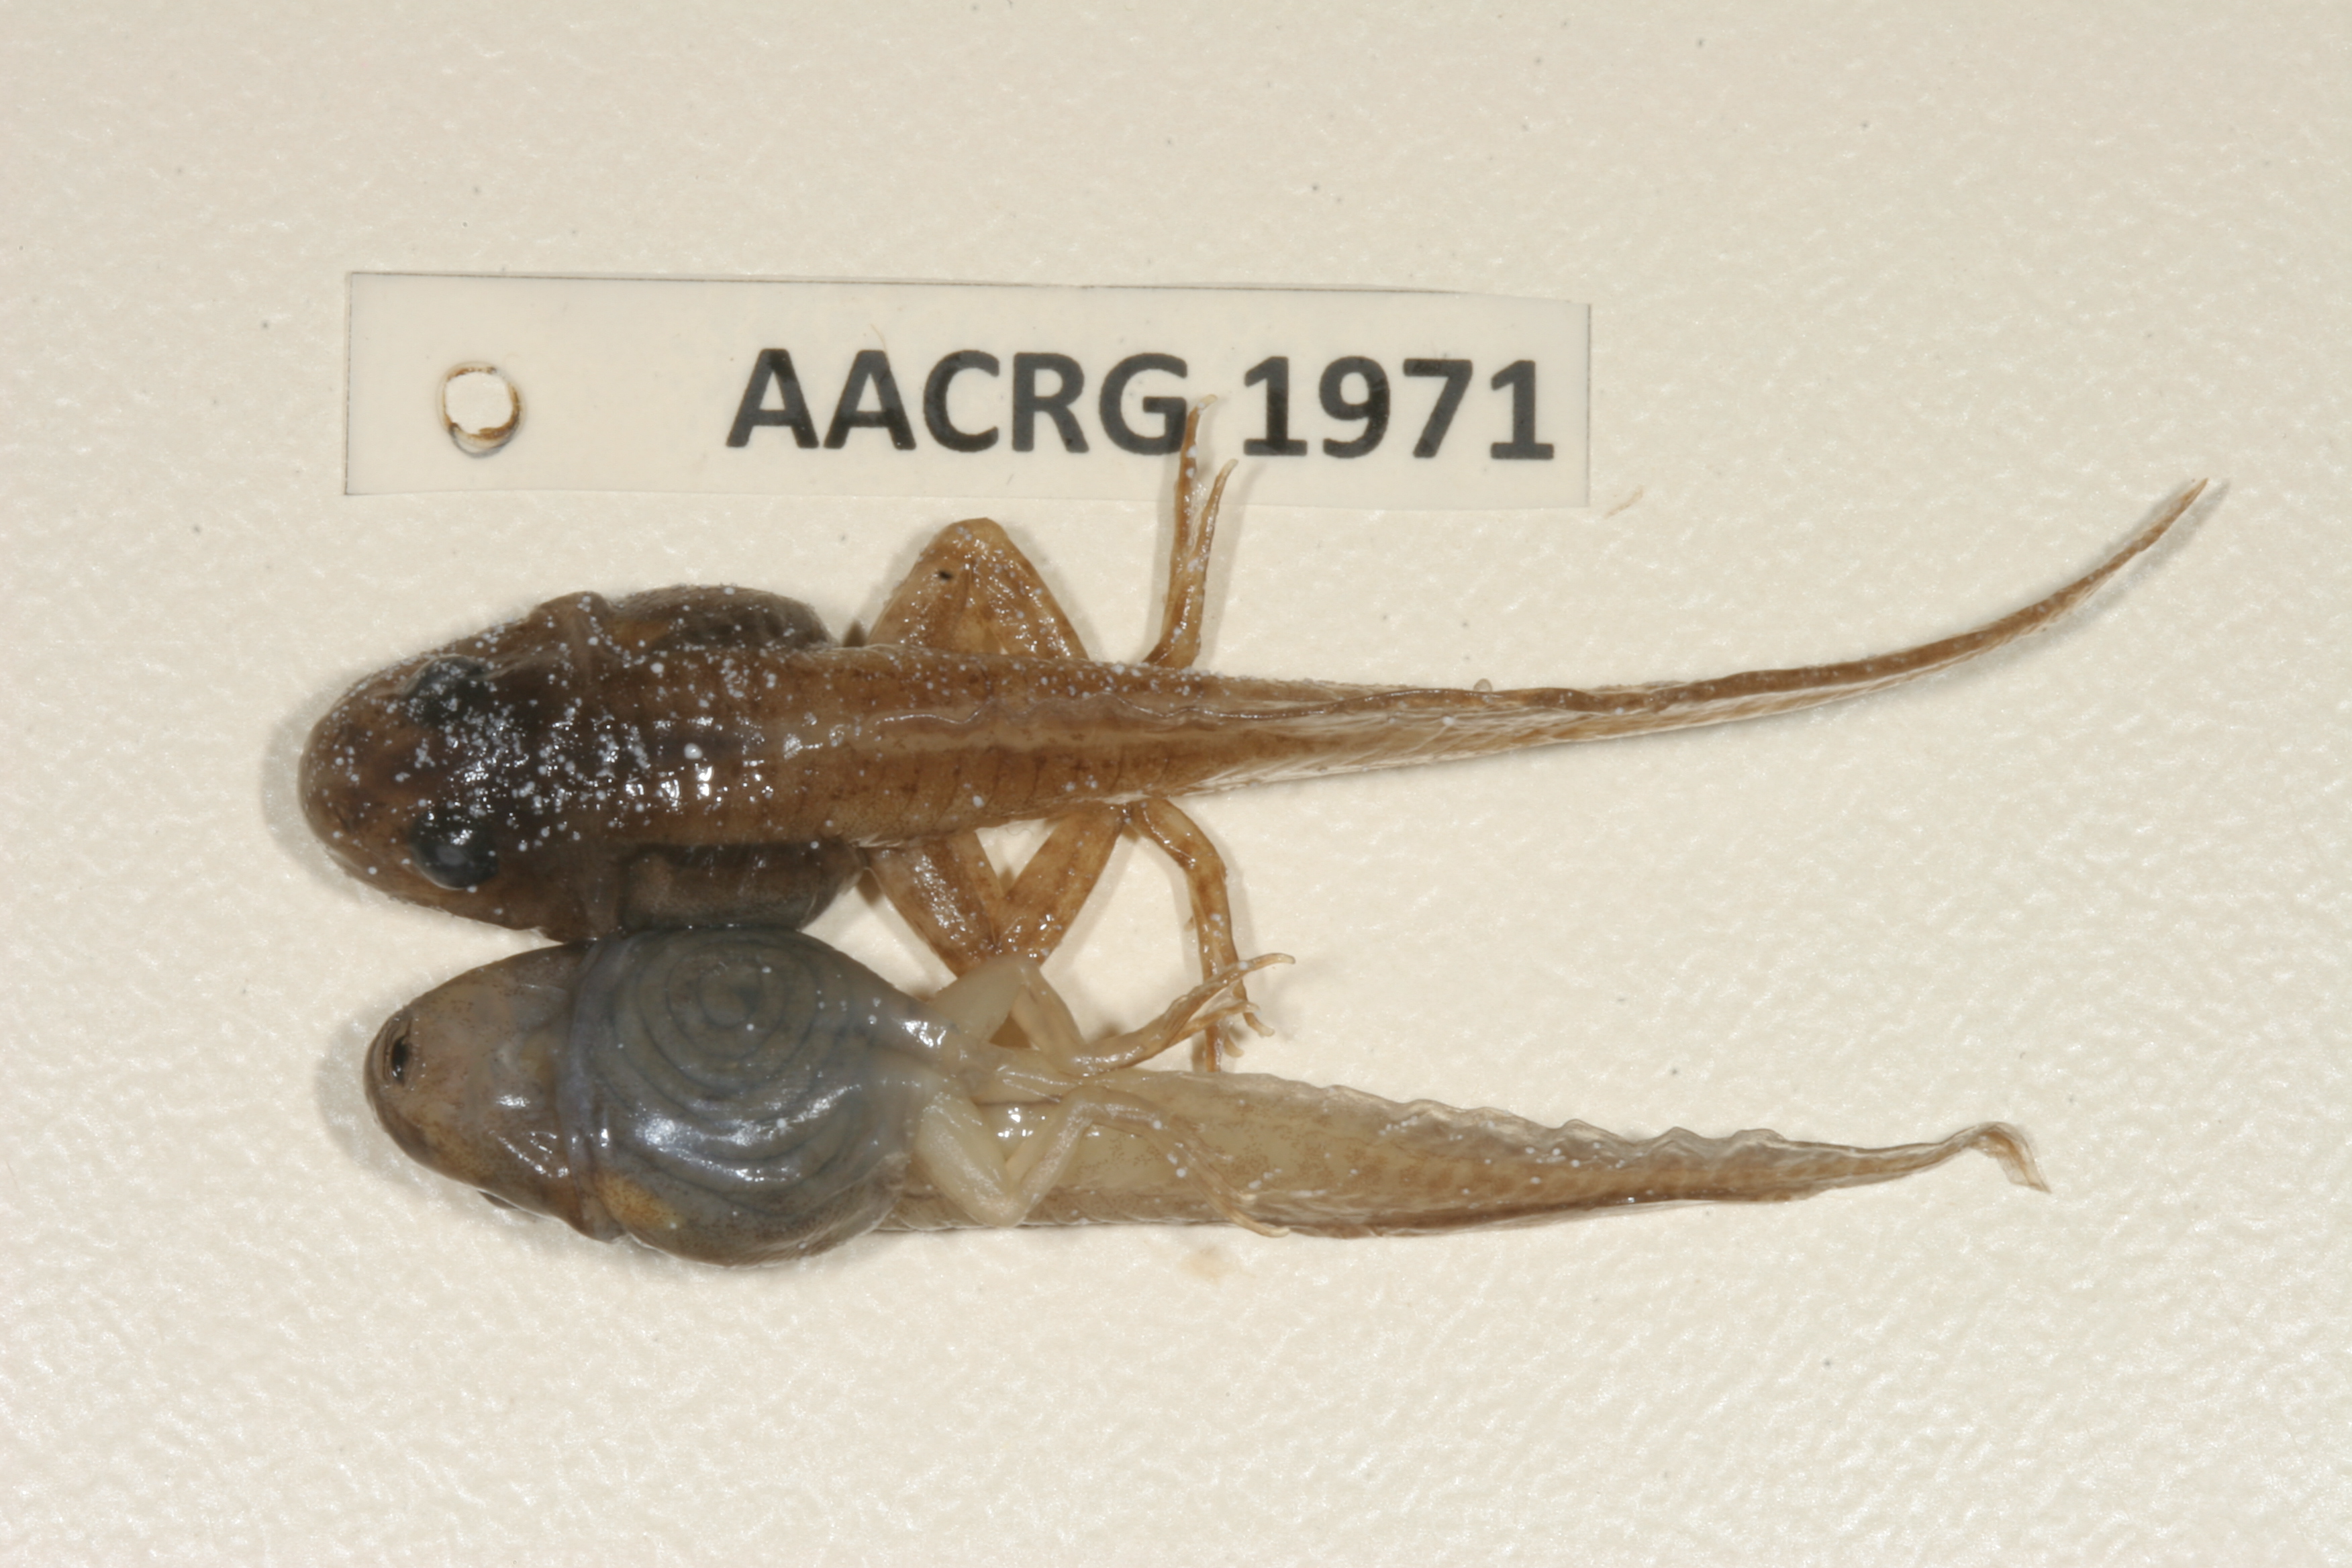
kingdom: Animalia
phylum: Chordata
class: Amphibia
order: Anura
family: Ptychadenidae
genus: Ptychadena
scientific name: Ptychadena subpunctata
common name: Bocage's grassland frog
